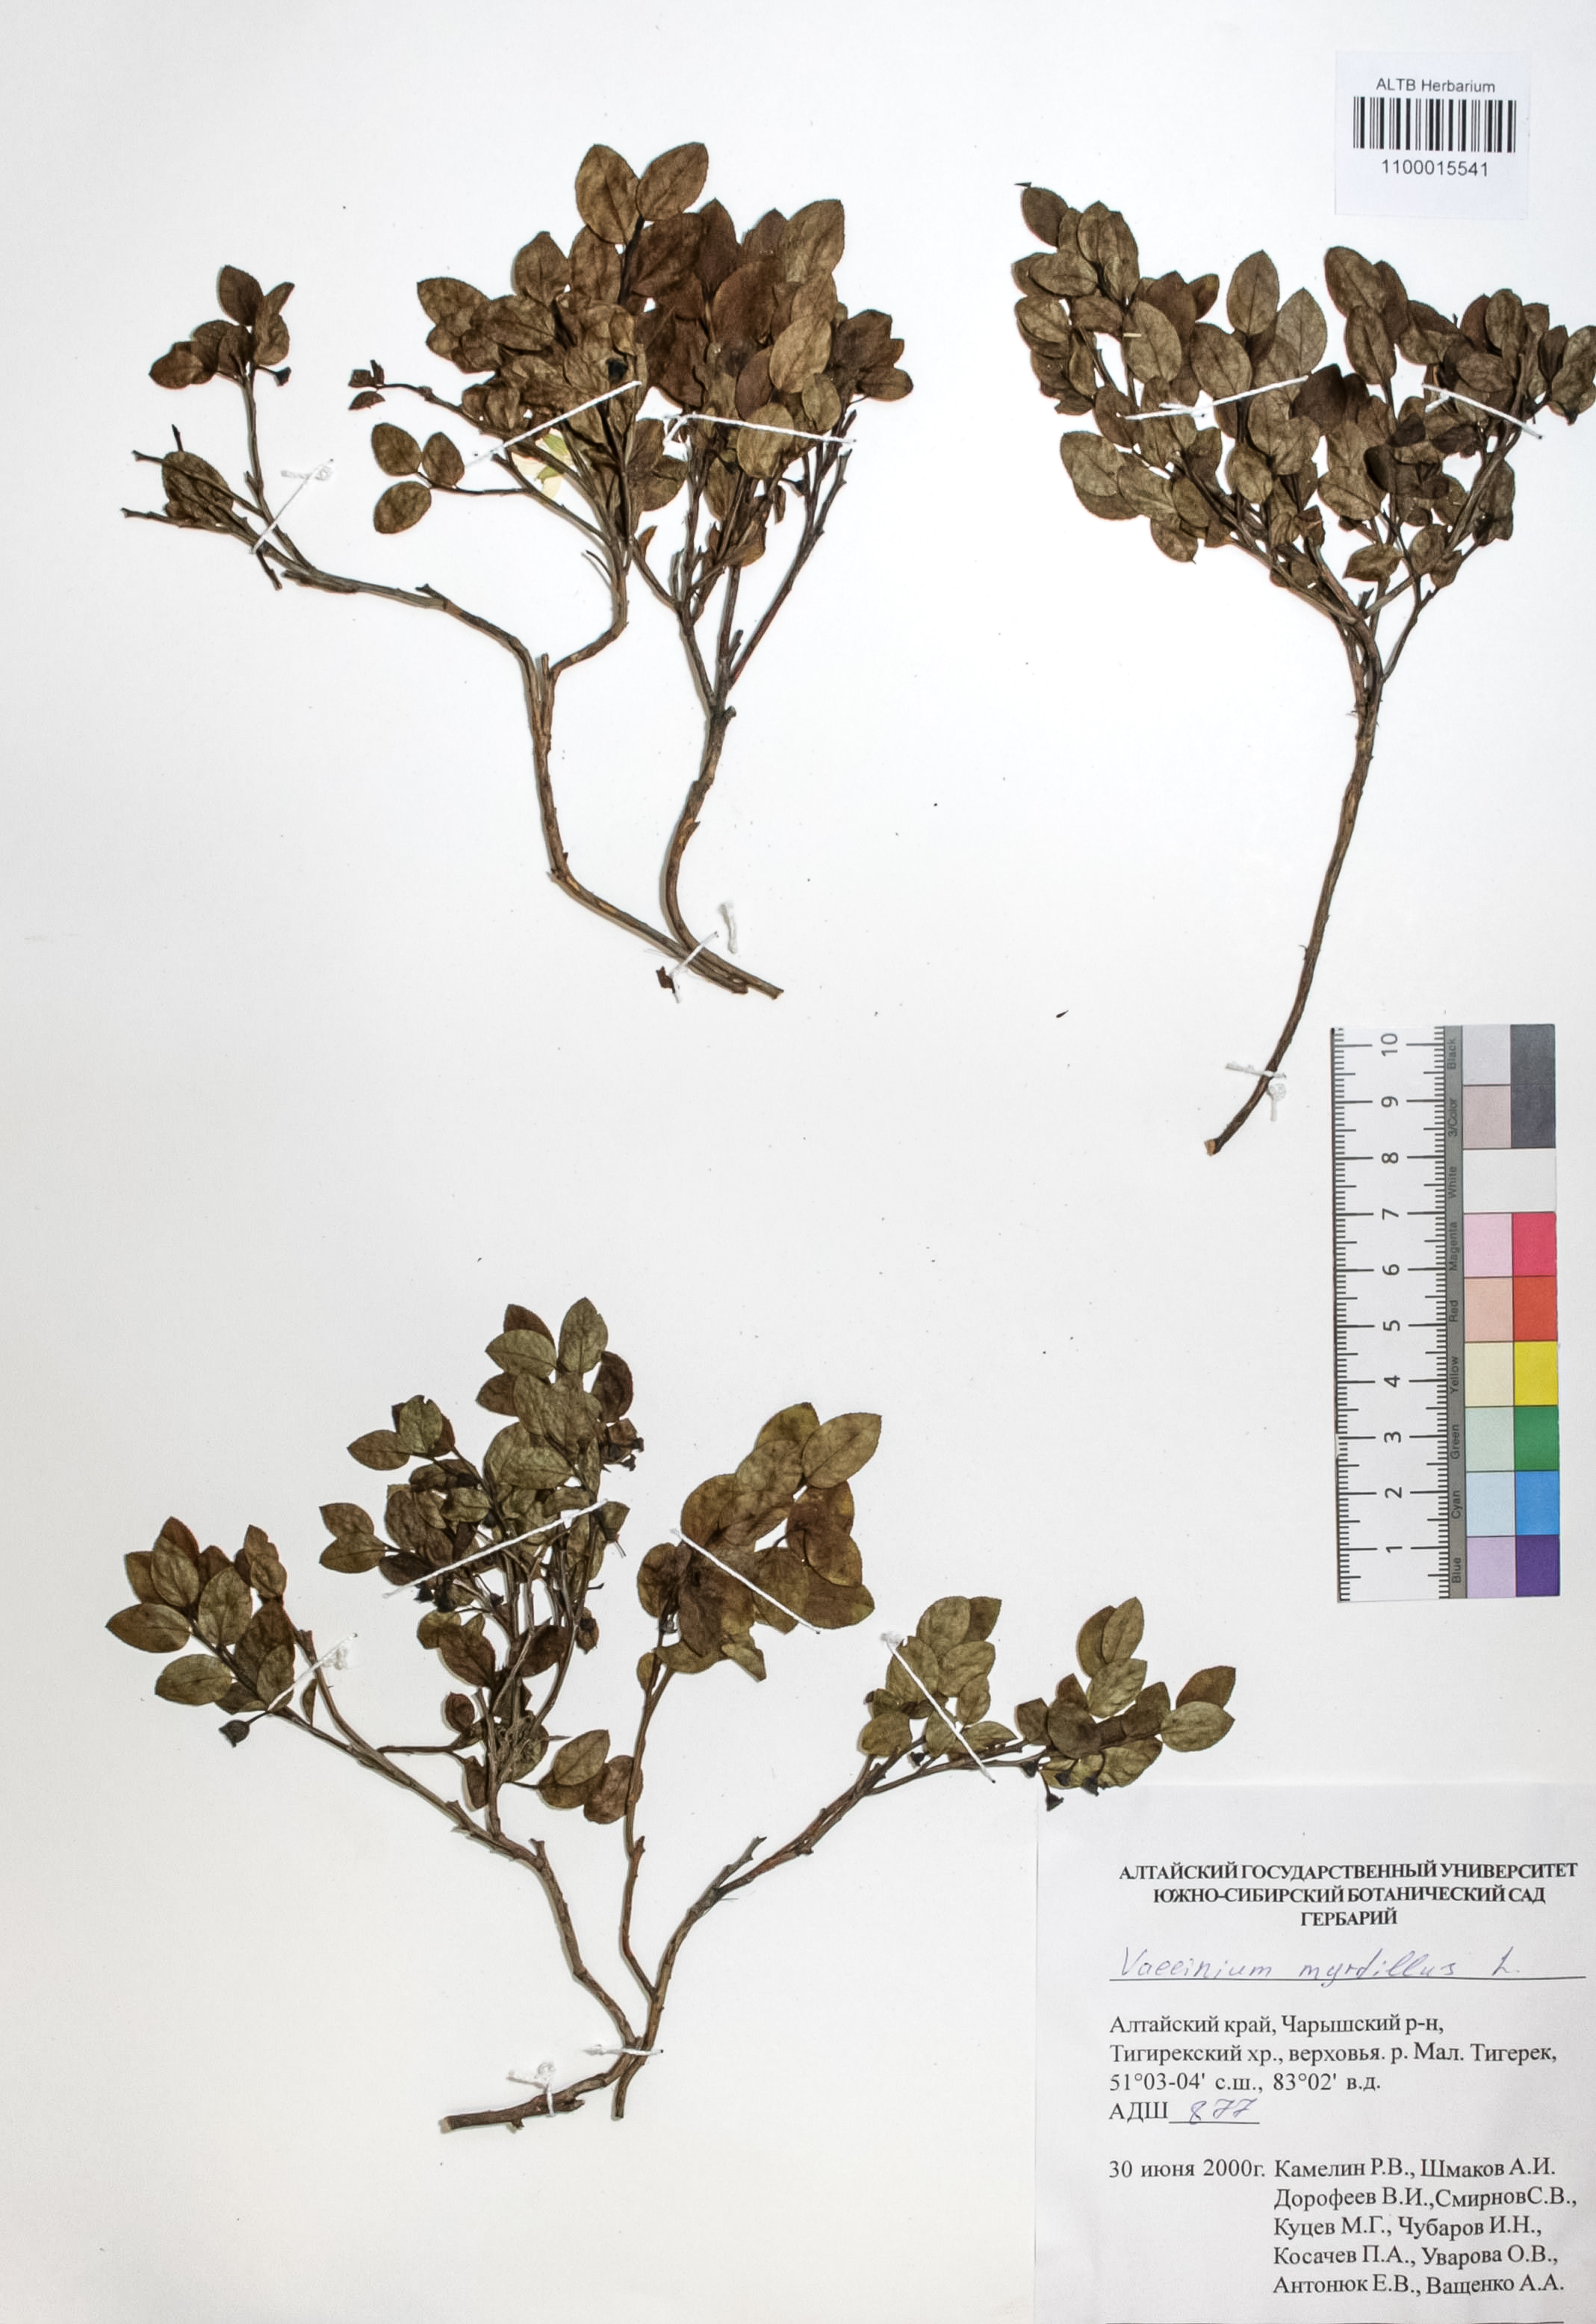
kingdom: Plantae
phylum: Tracheophyta
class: Magnoliopsida
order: Ericales
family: Ericaceae
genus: Vaccinium
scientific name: Vaccinium myrtillus
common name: Bilberry
